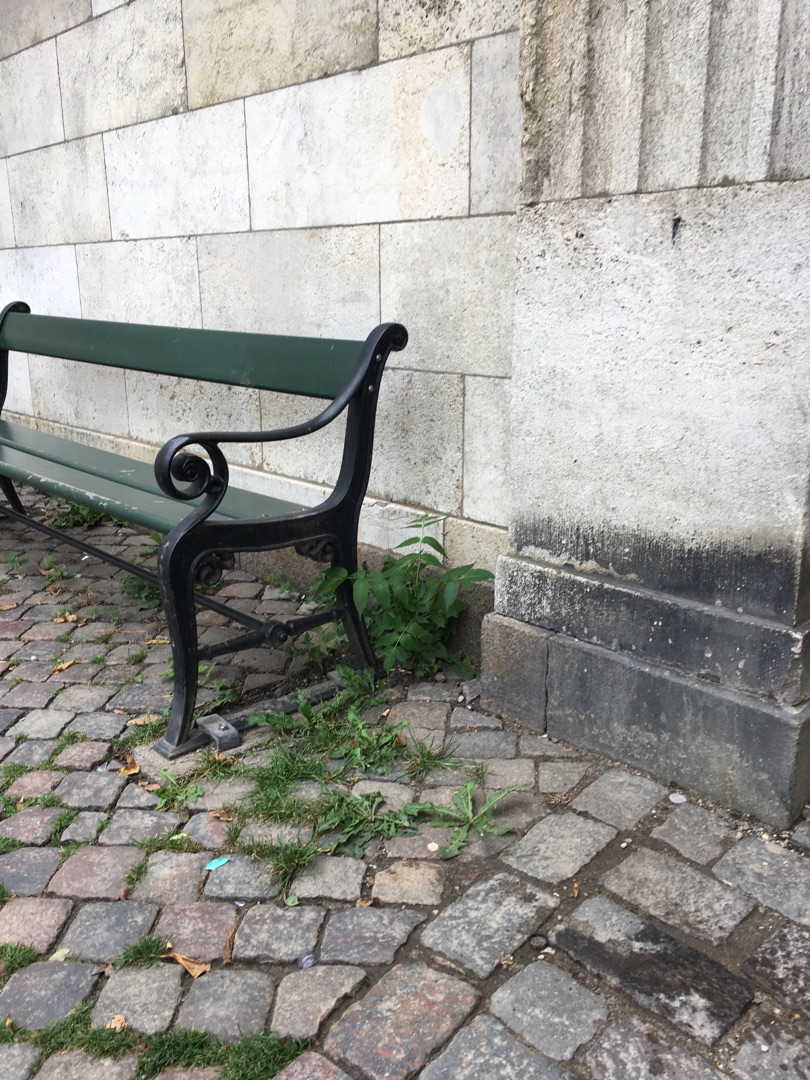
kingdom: Plantae
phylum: Tracheophyta
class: Magnoliopsida
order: Sapindales
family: Simaroubaceae
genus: Ailanthus
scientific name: Ailanthus altissima
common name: Skyrækker
